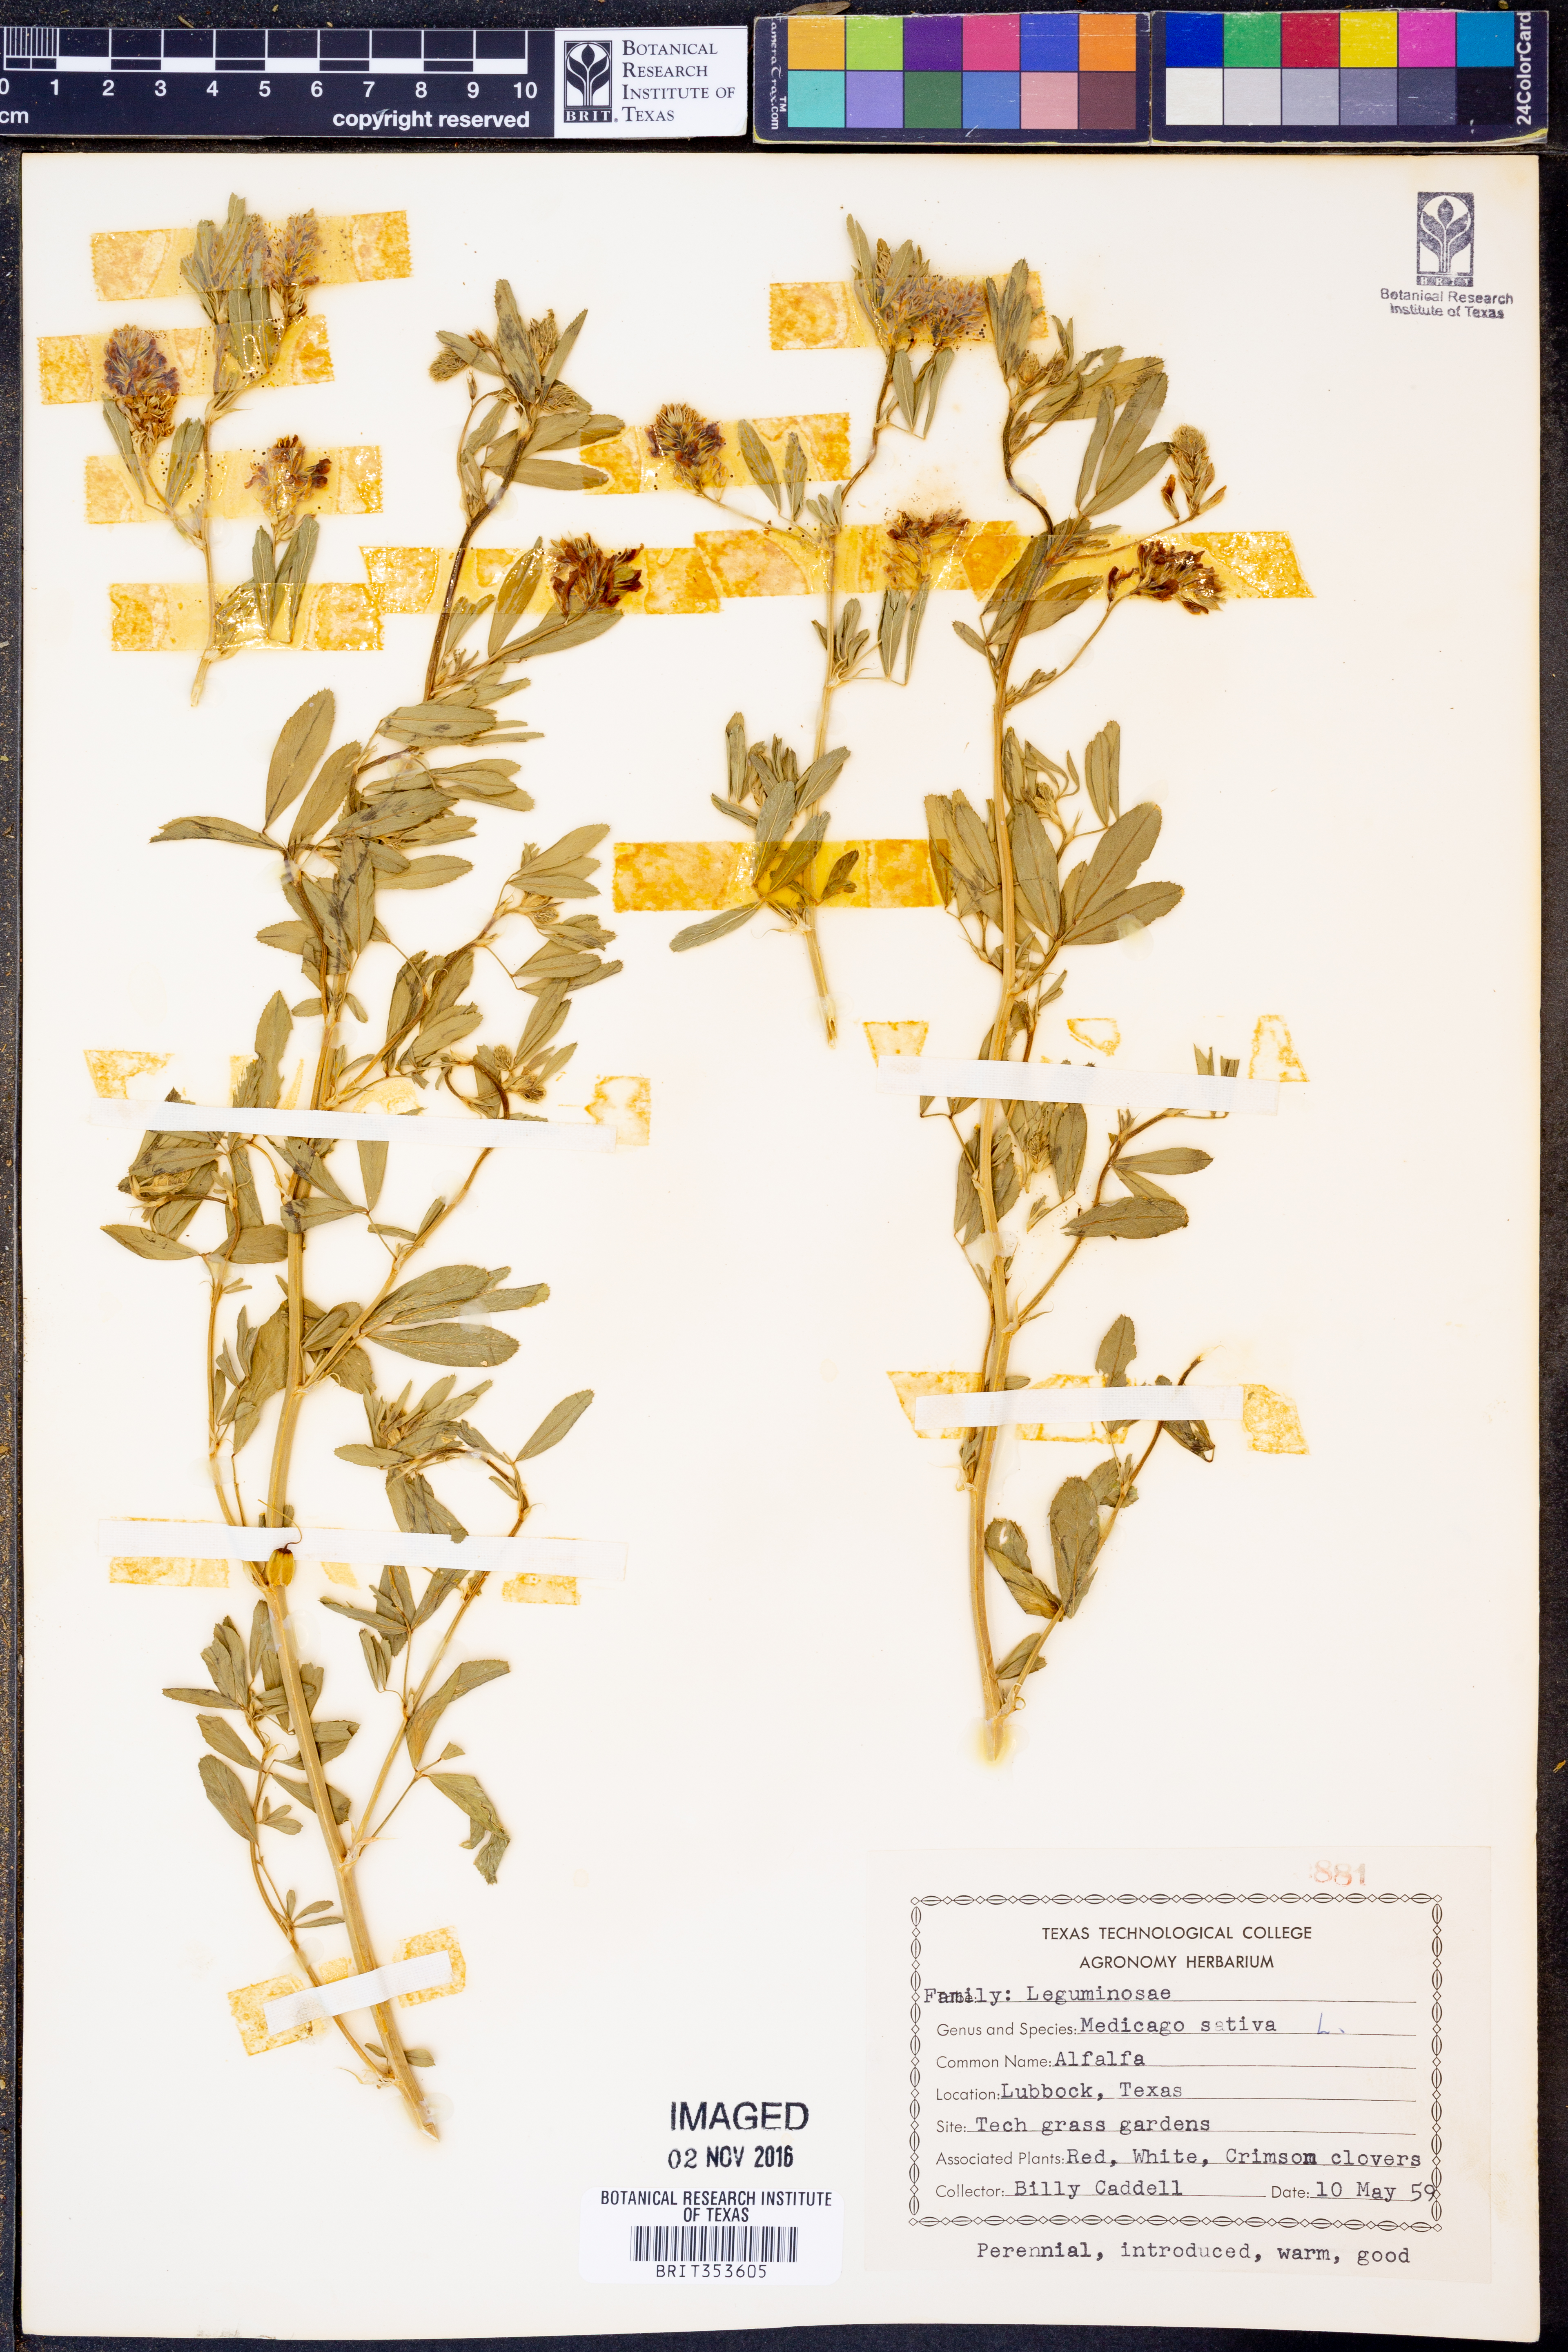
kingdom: Plantae
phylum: Tracheophyta
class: Magnoliopsida
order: Fabales
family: Fabaceae
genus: Medicago
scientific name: Medicago sativa
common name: Alfalfa
